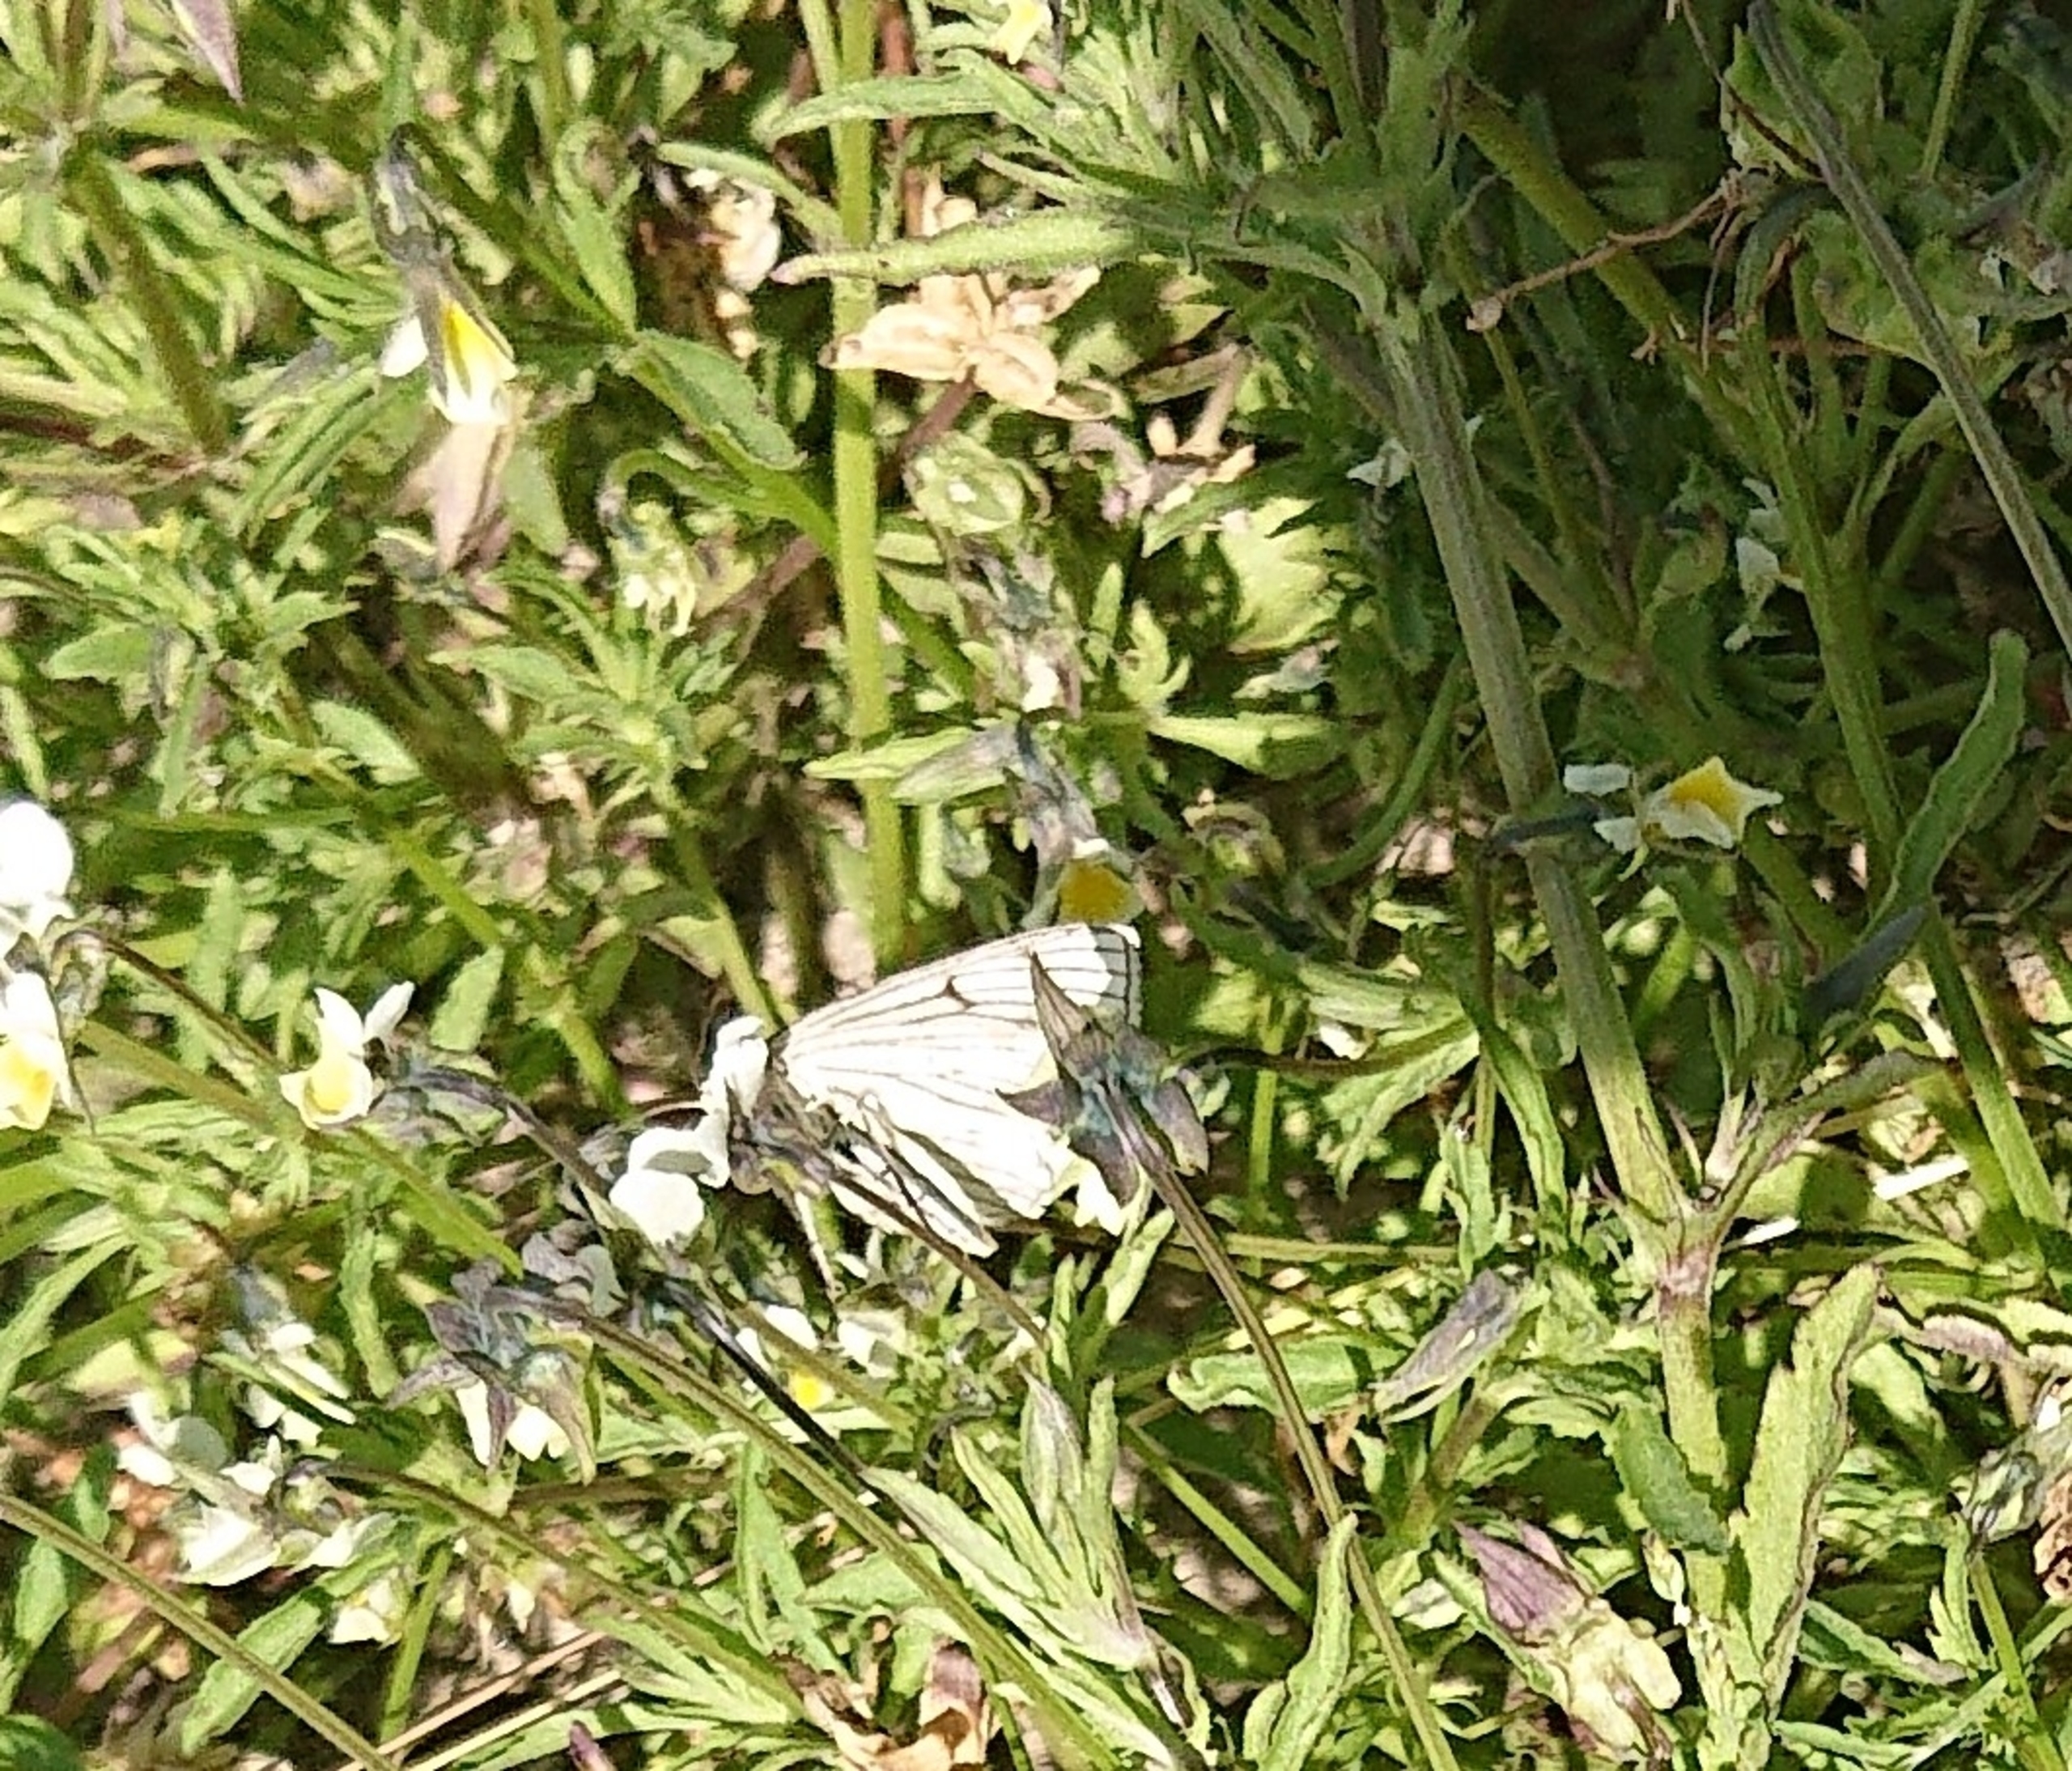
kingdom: Animalia
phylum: Arthropoda
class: Insecta
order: Lepidoptera
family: Geometridae
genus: Siona
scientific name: Siona lineata
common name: Hvidvingemåler
